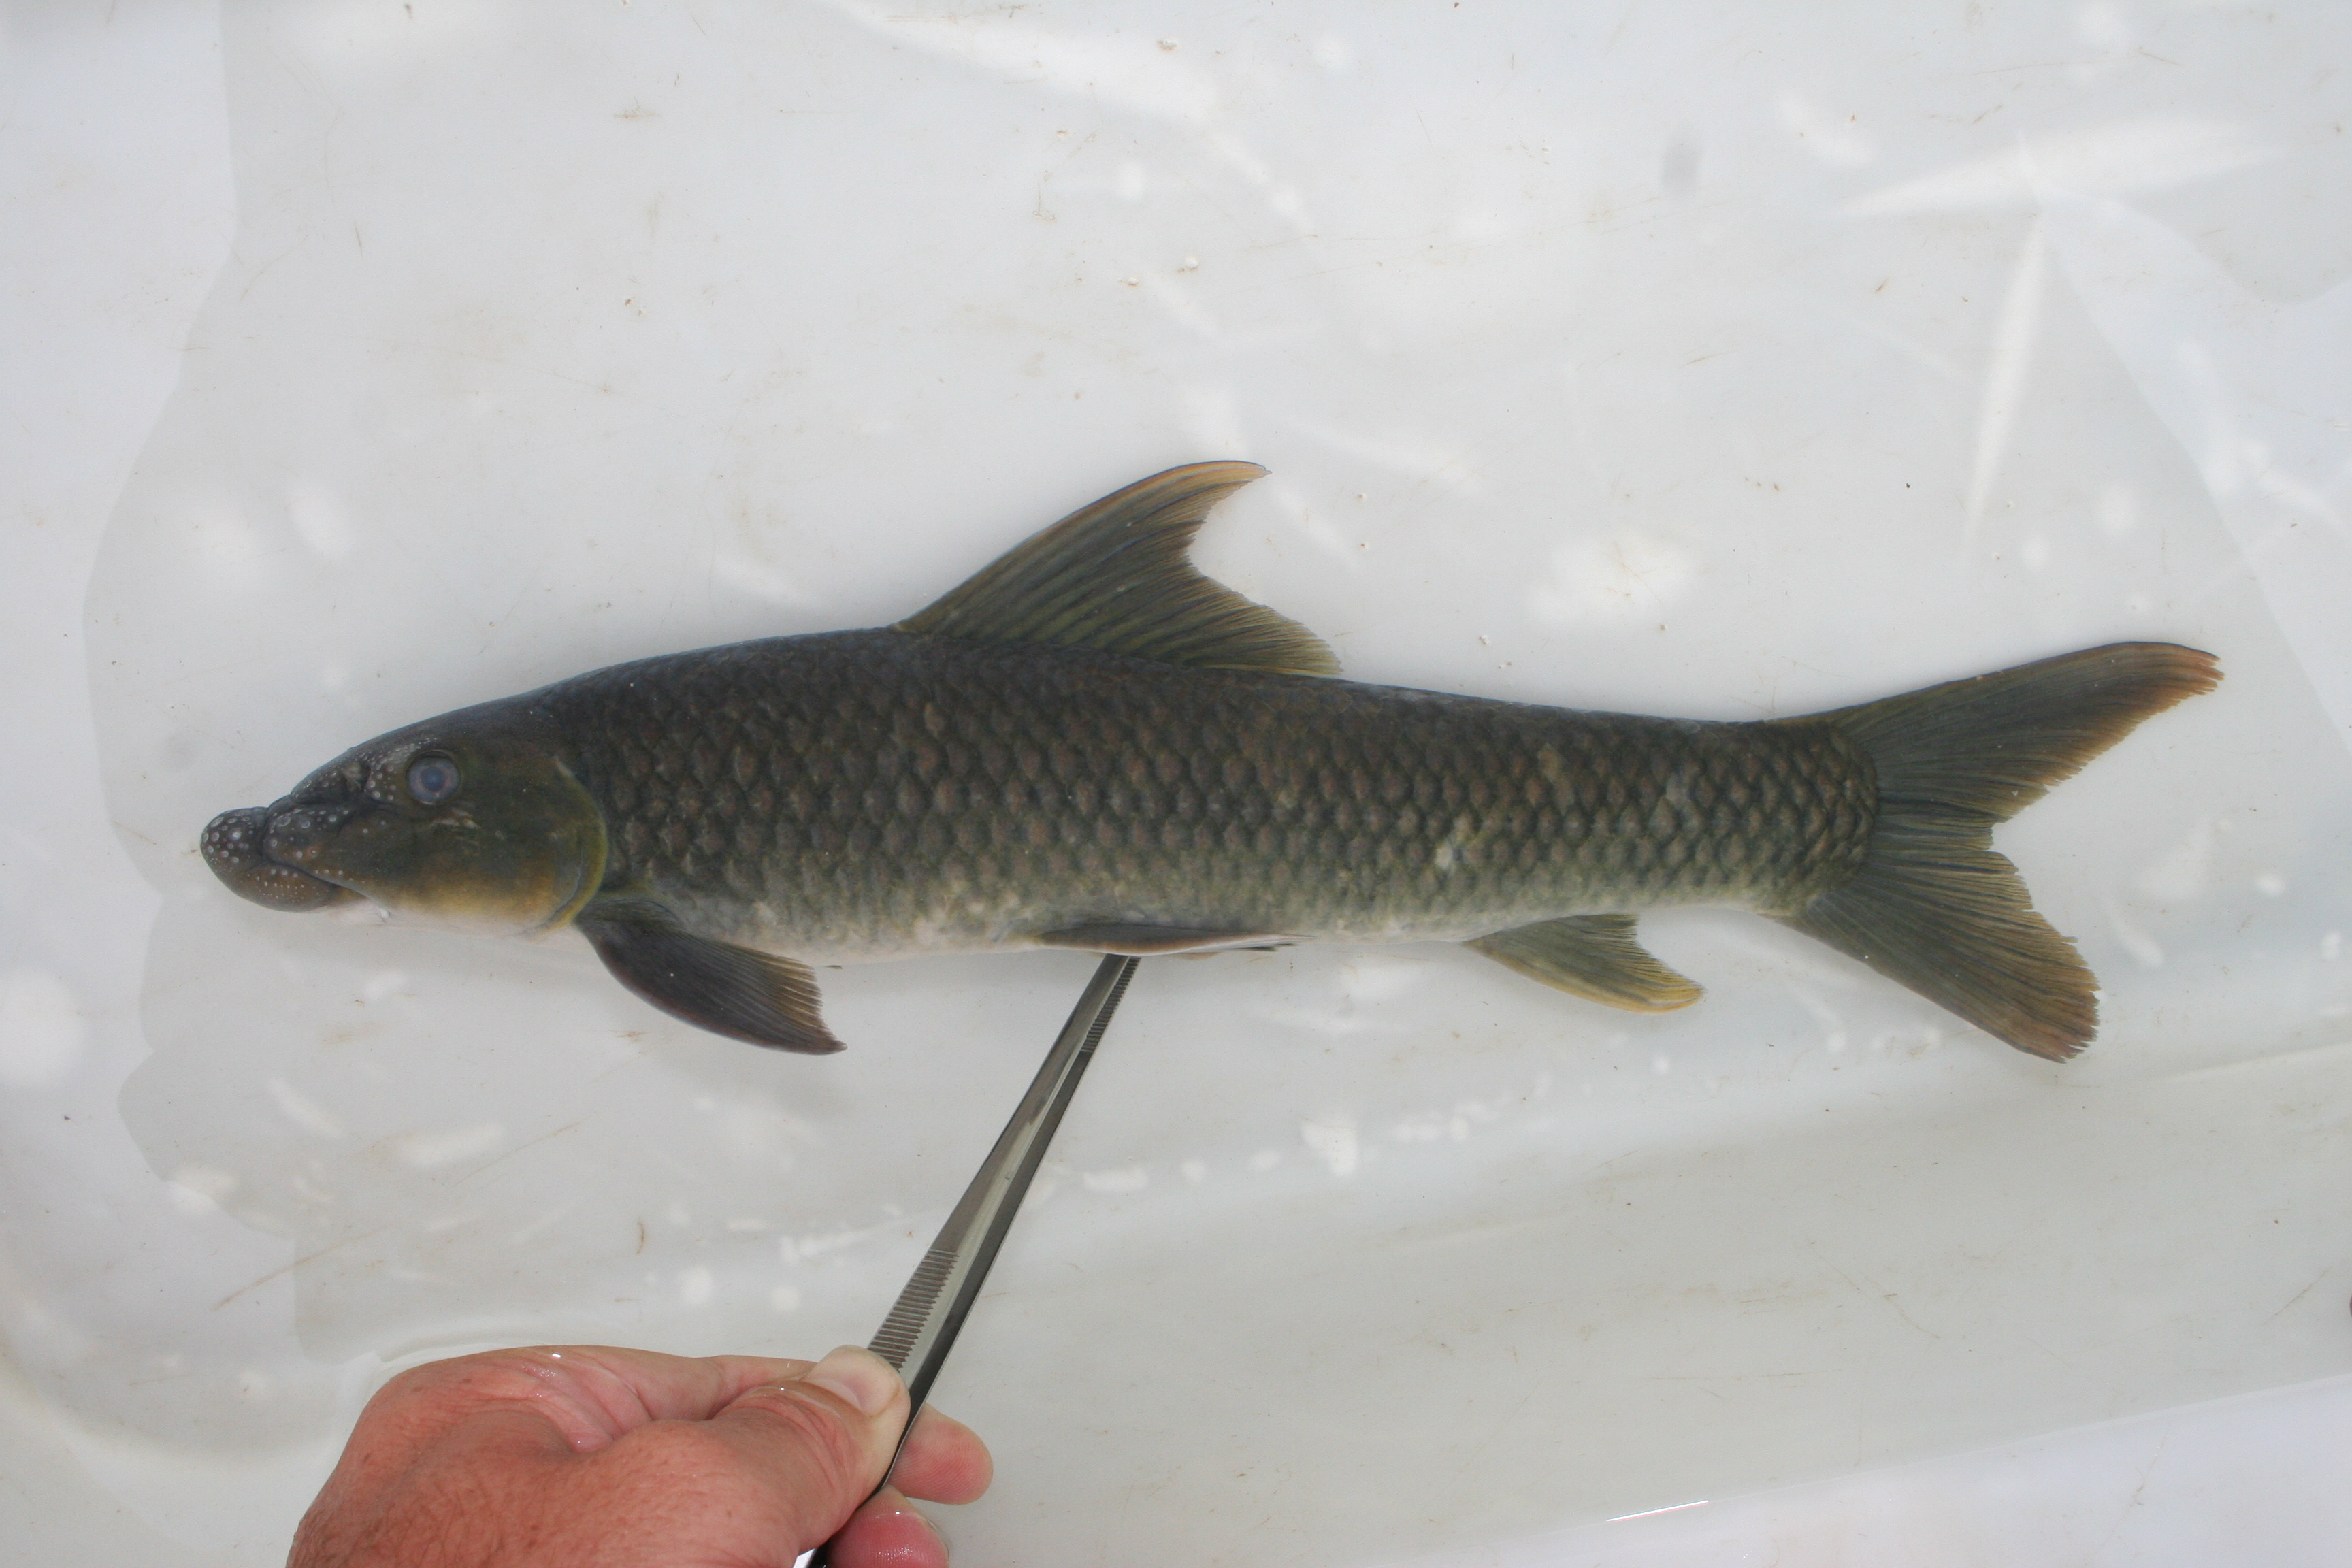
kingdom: Animalia
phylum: Chordata
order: Cypriniformes
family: Cyprinidae
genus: Labeo
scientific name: Labeo annectens
